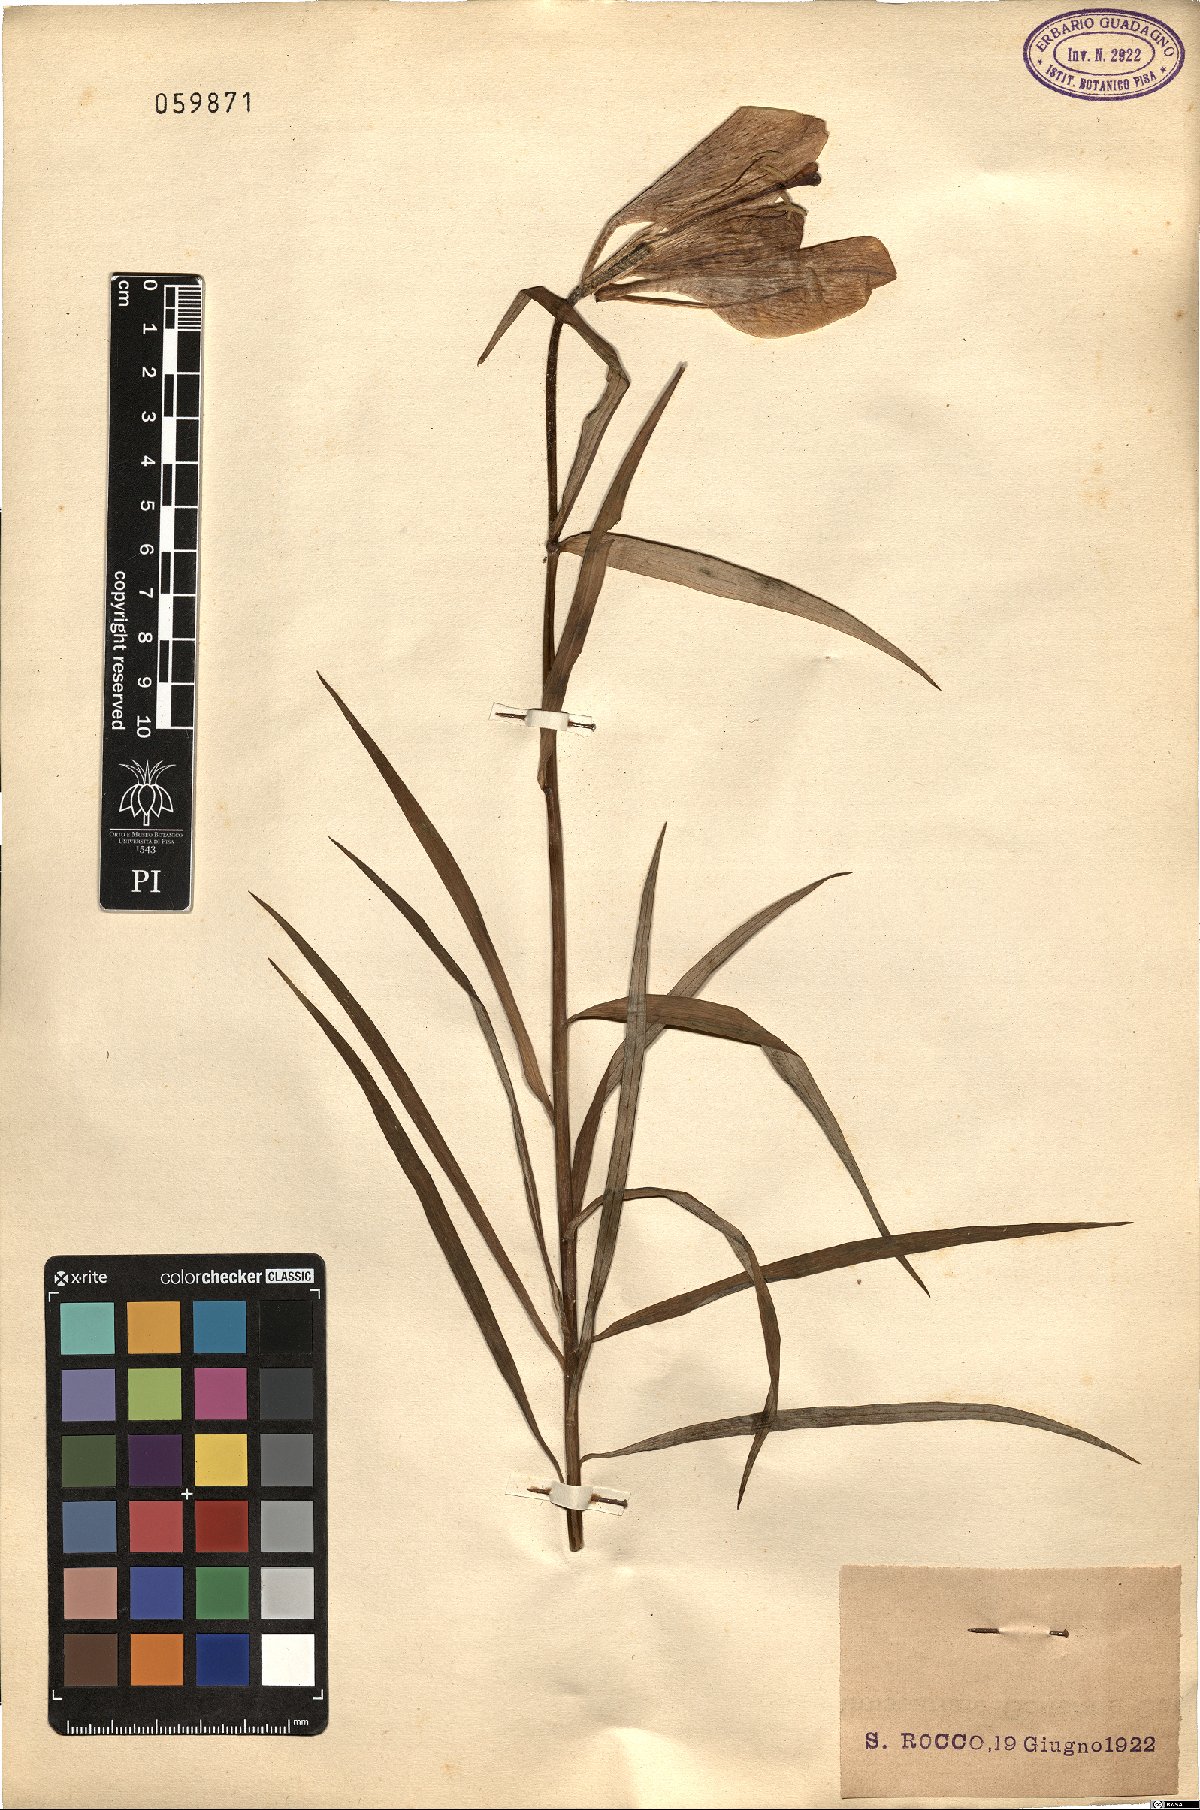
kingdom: Plantae
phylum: Tracheophyta
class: Liliopsida
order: Liliales
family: Liliaceae
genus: Lilium
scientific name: Lilium bulbiferum
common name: Orange lily
